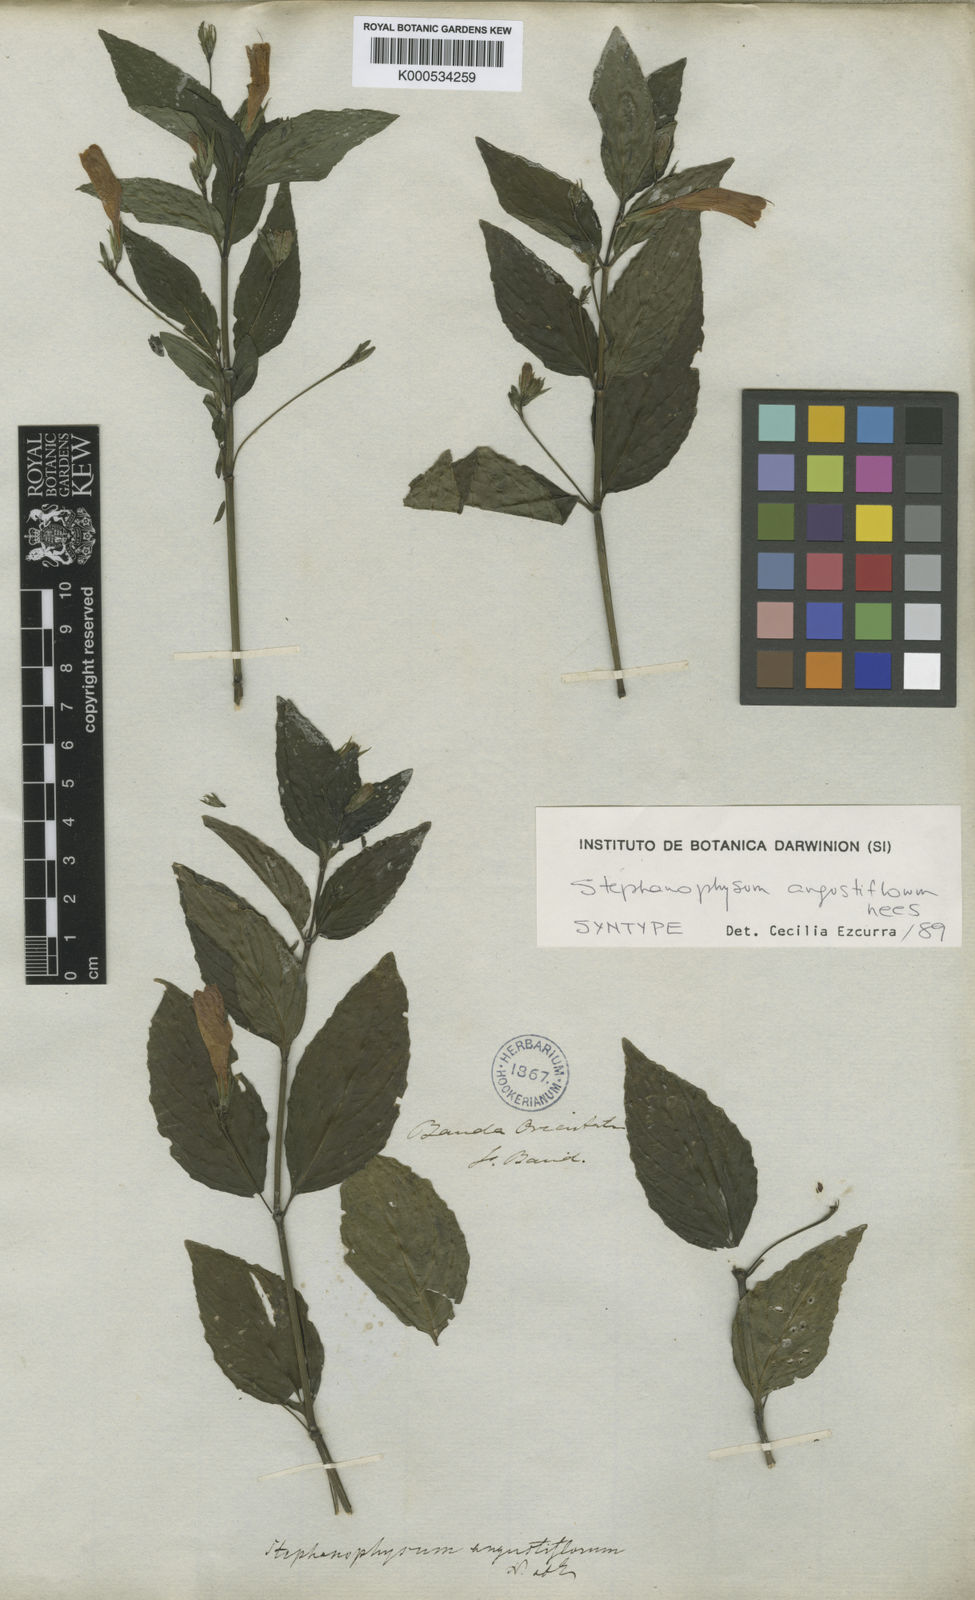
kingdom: Plantae
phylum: Tracheophyta
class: Magnoliopsida
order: Lamiales
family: Acanthaceae
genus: Ruellia
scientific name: Ruellia angustiflora
